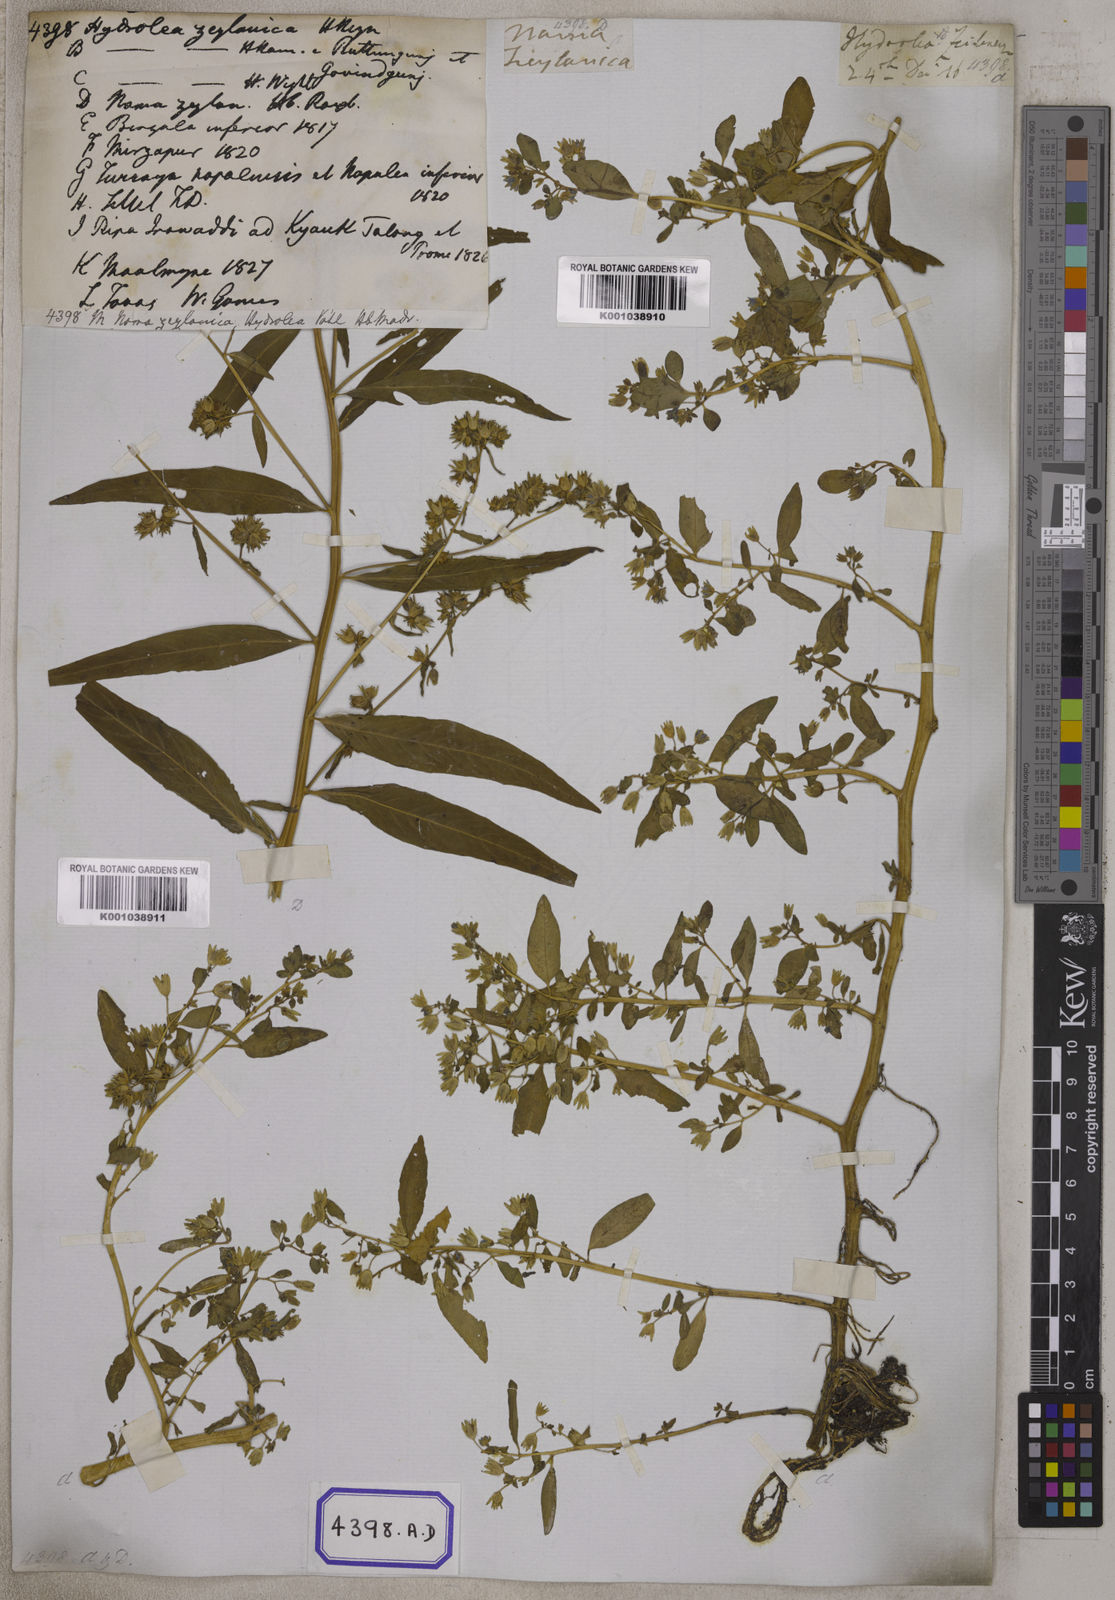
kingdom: Plantae
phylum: Tracheophyta
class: Magnoliopsida
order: Solanales
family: Hydroleaceae
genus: Hydrolea
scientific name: Hydrolea zeylanica
